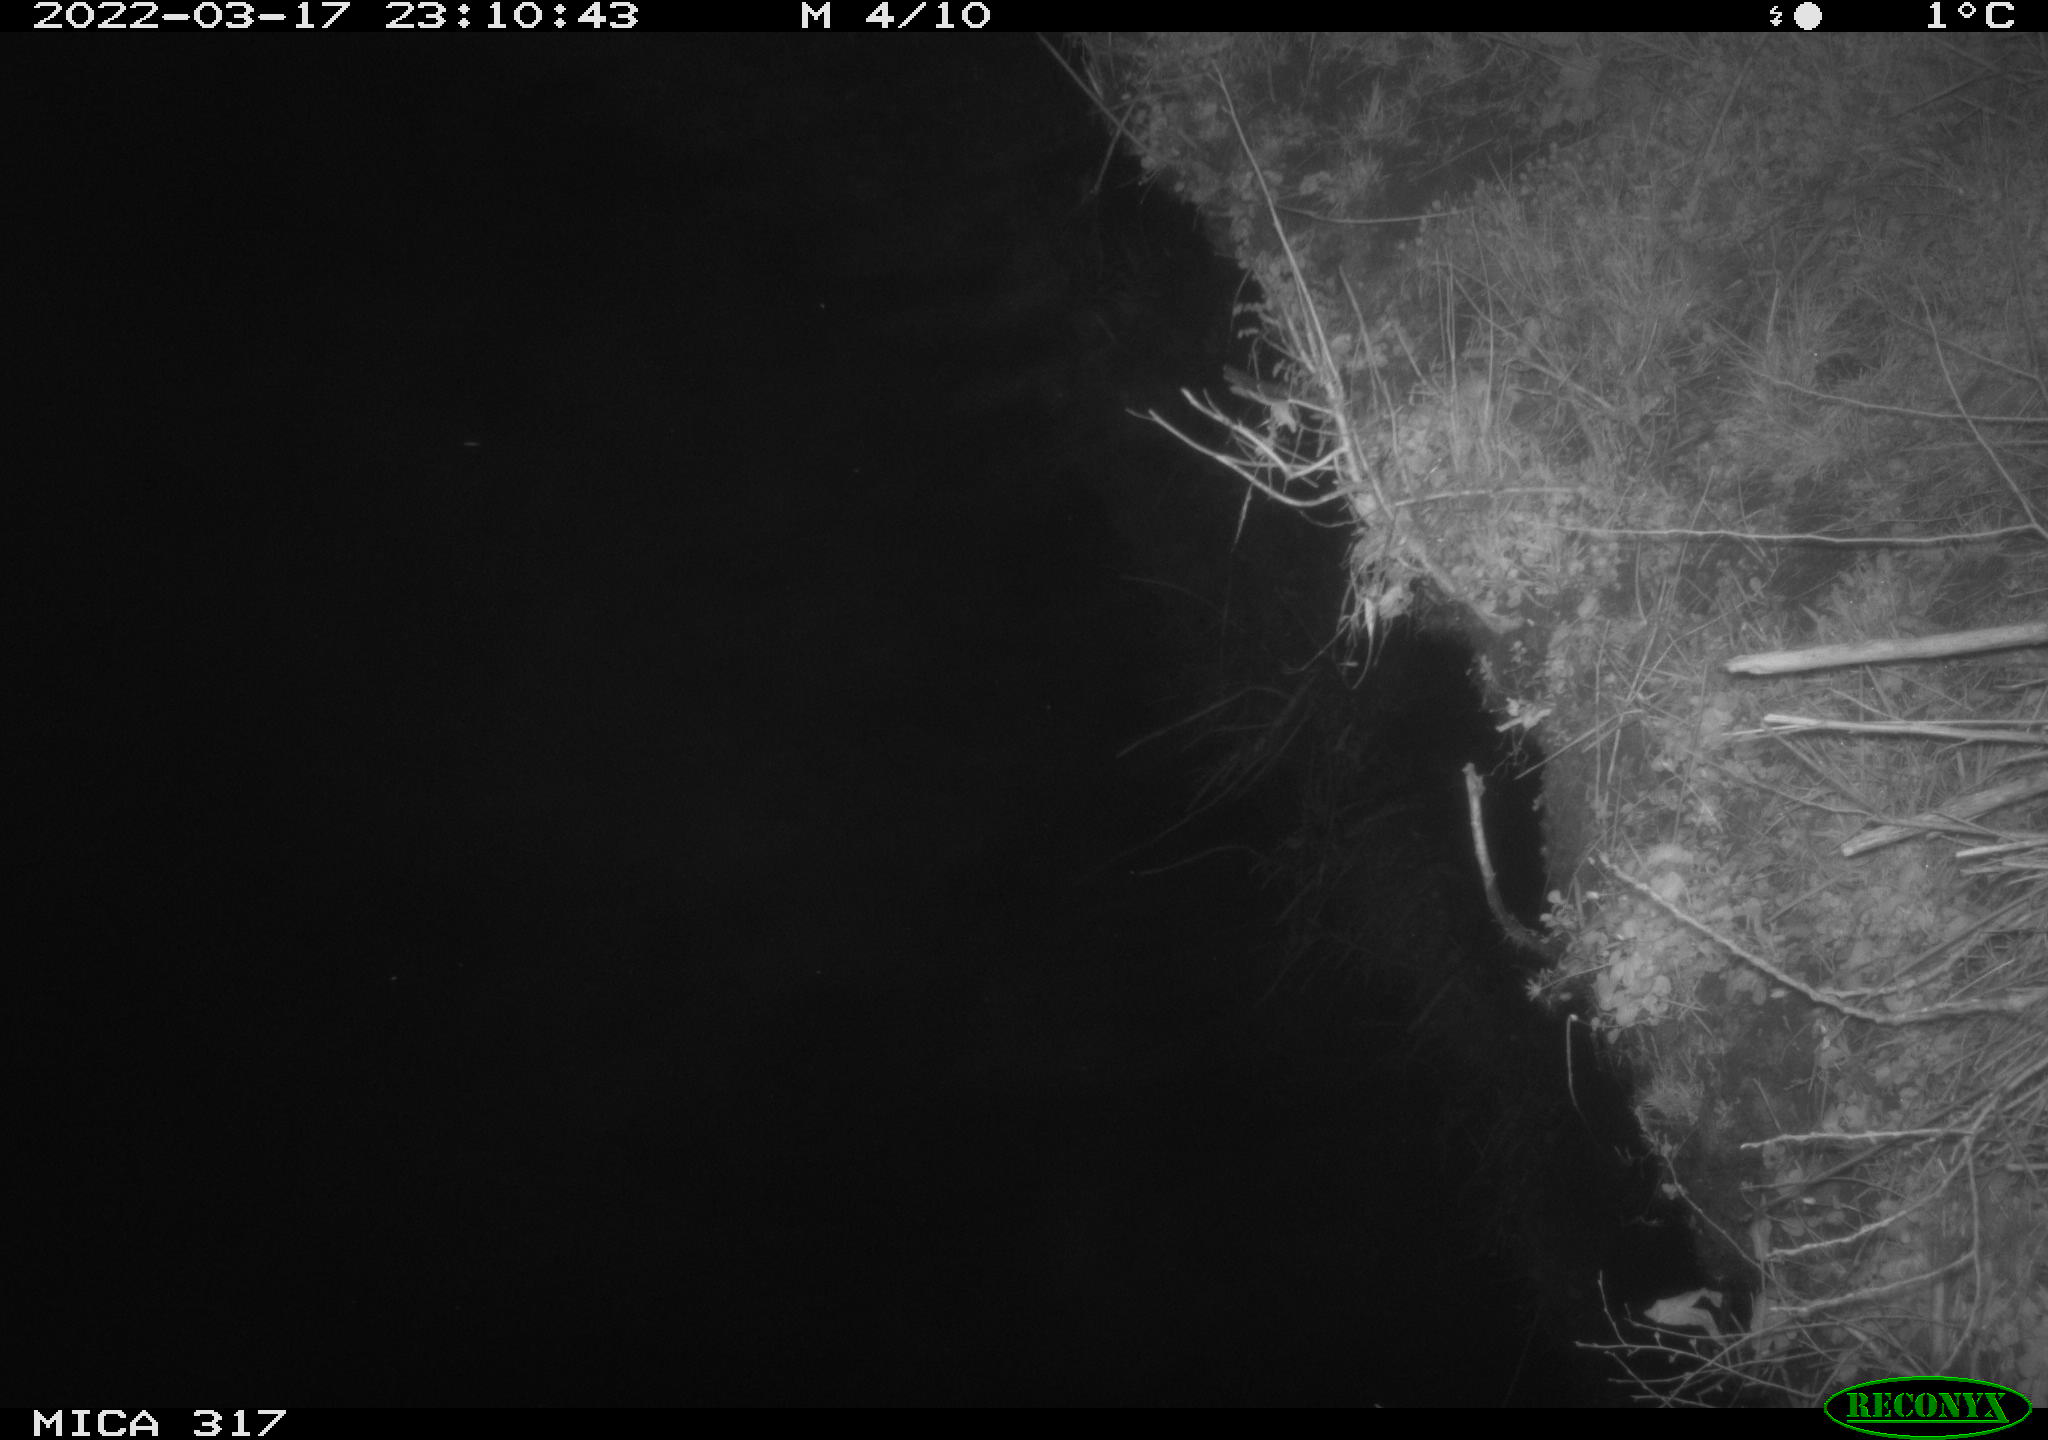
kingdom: Animalia
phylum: Chordata
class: Aves
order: Anseriformes
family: Anatidae
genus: Anas
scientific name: Anas platyrhynchos
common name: Mallard
